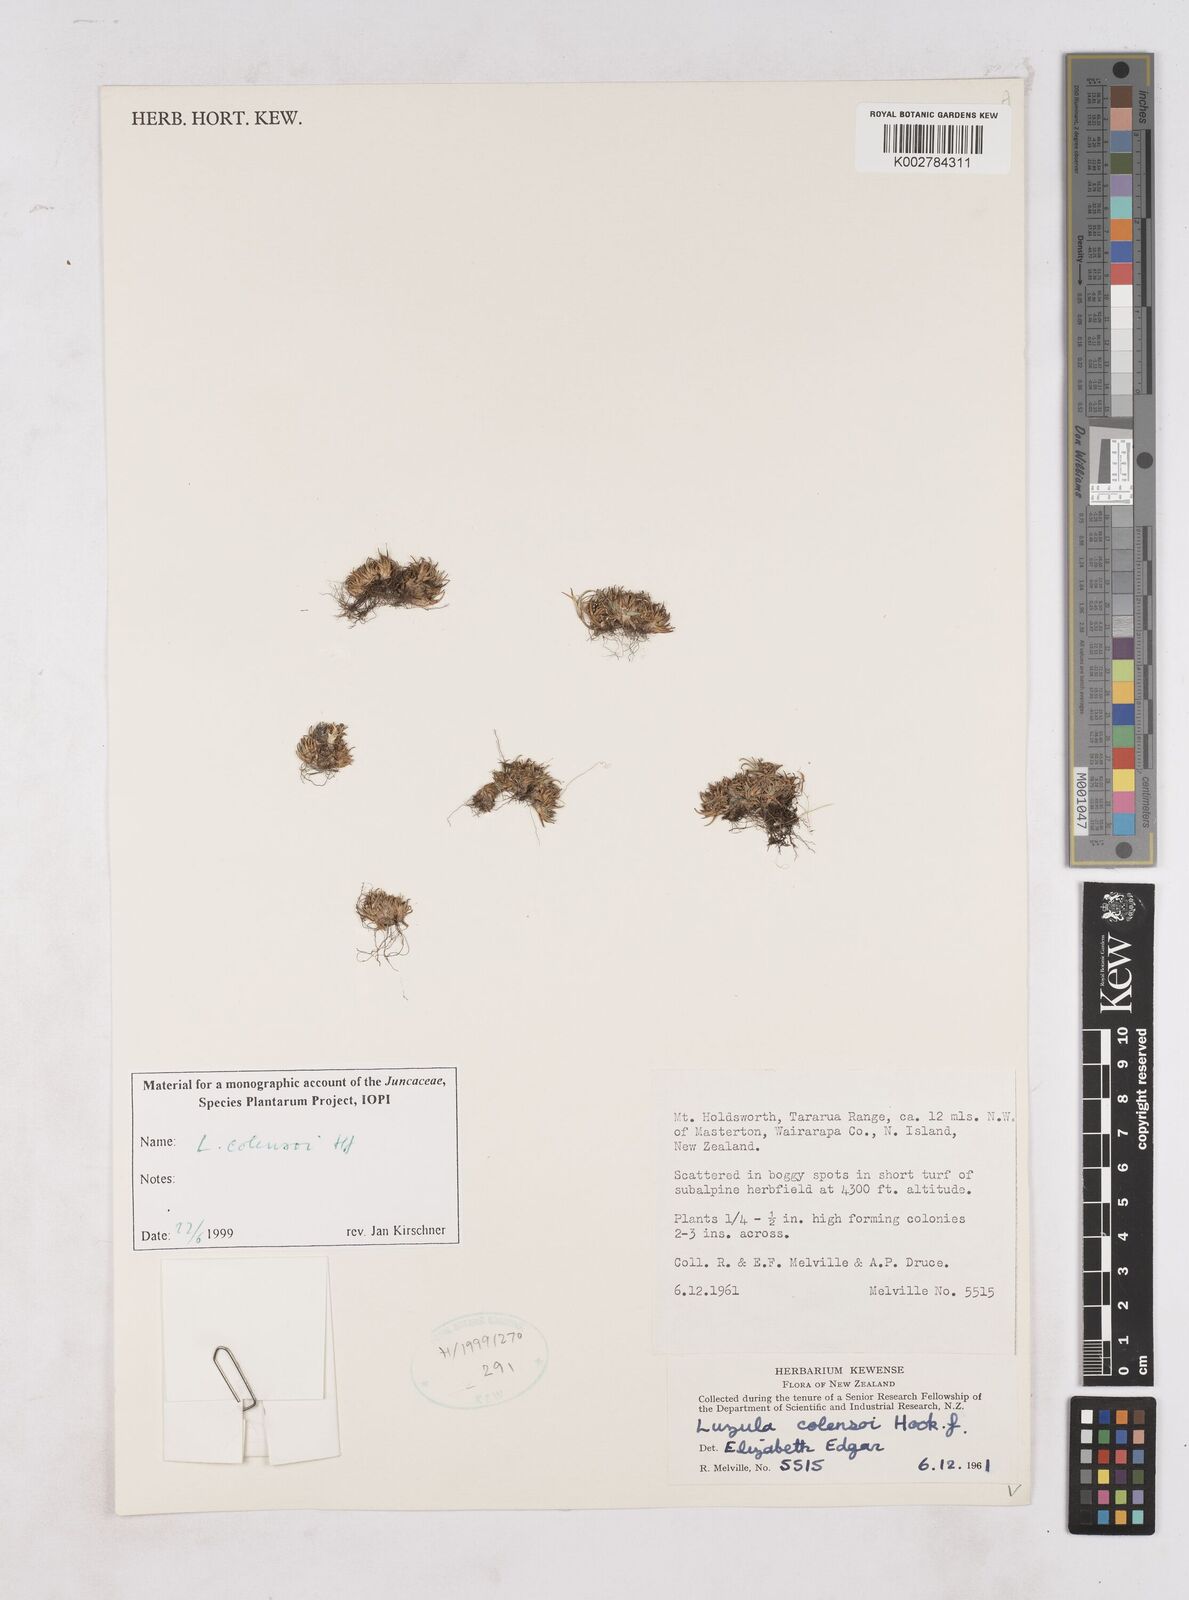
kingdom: Plantae
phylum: Tracheophyta
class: Liliopsida
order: Poales
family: Juncaceae
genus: Luzula
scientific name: Luzula colensoi
